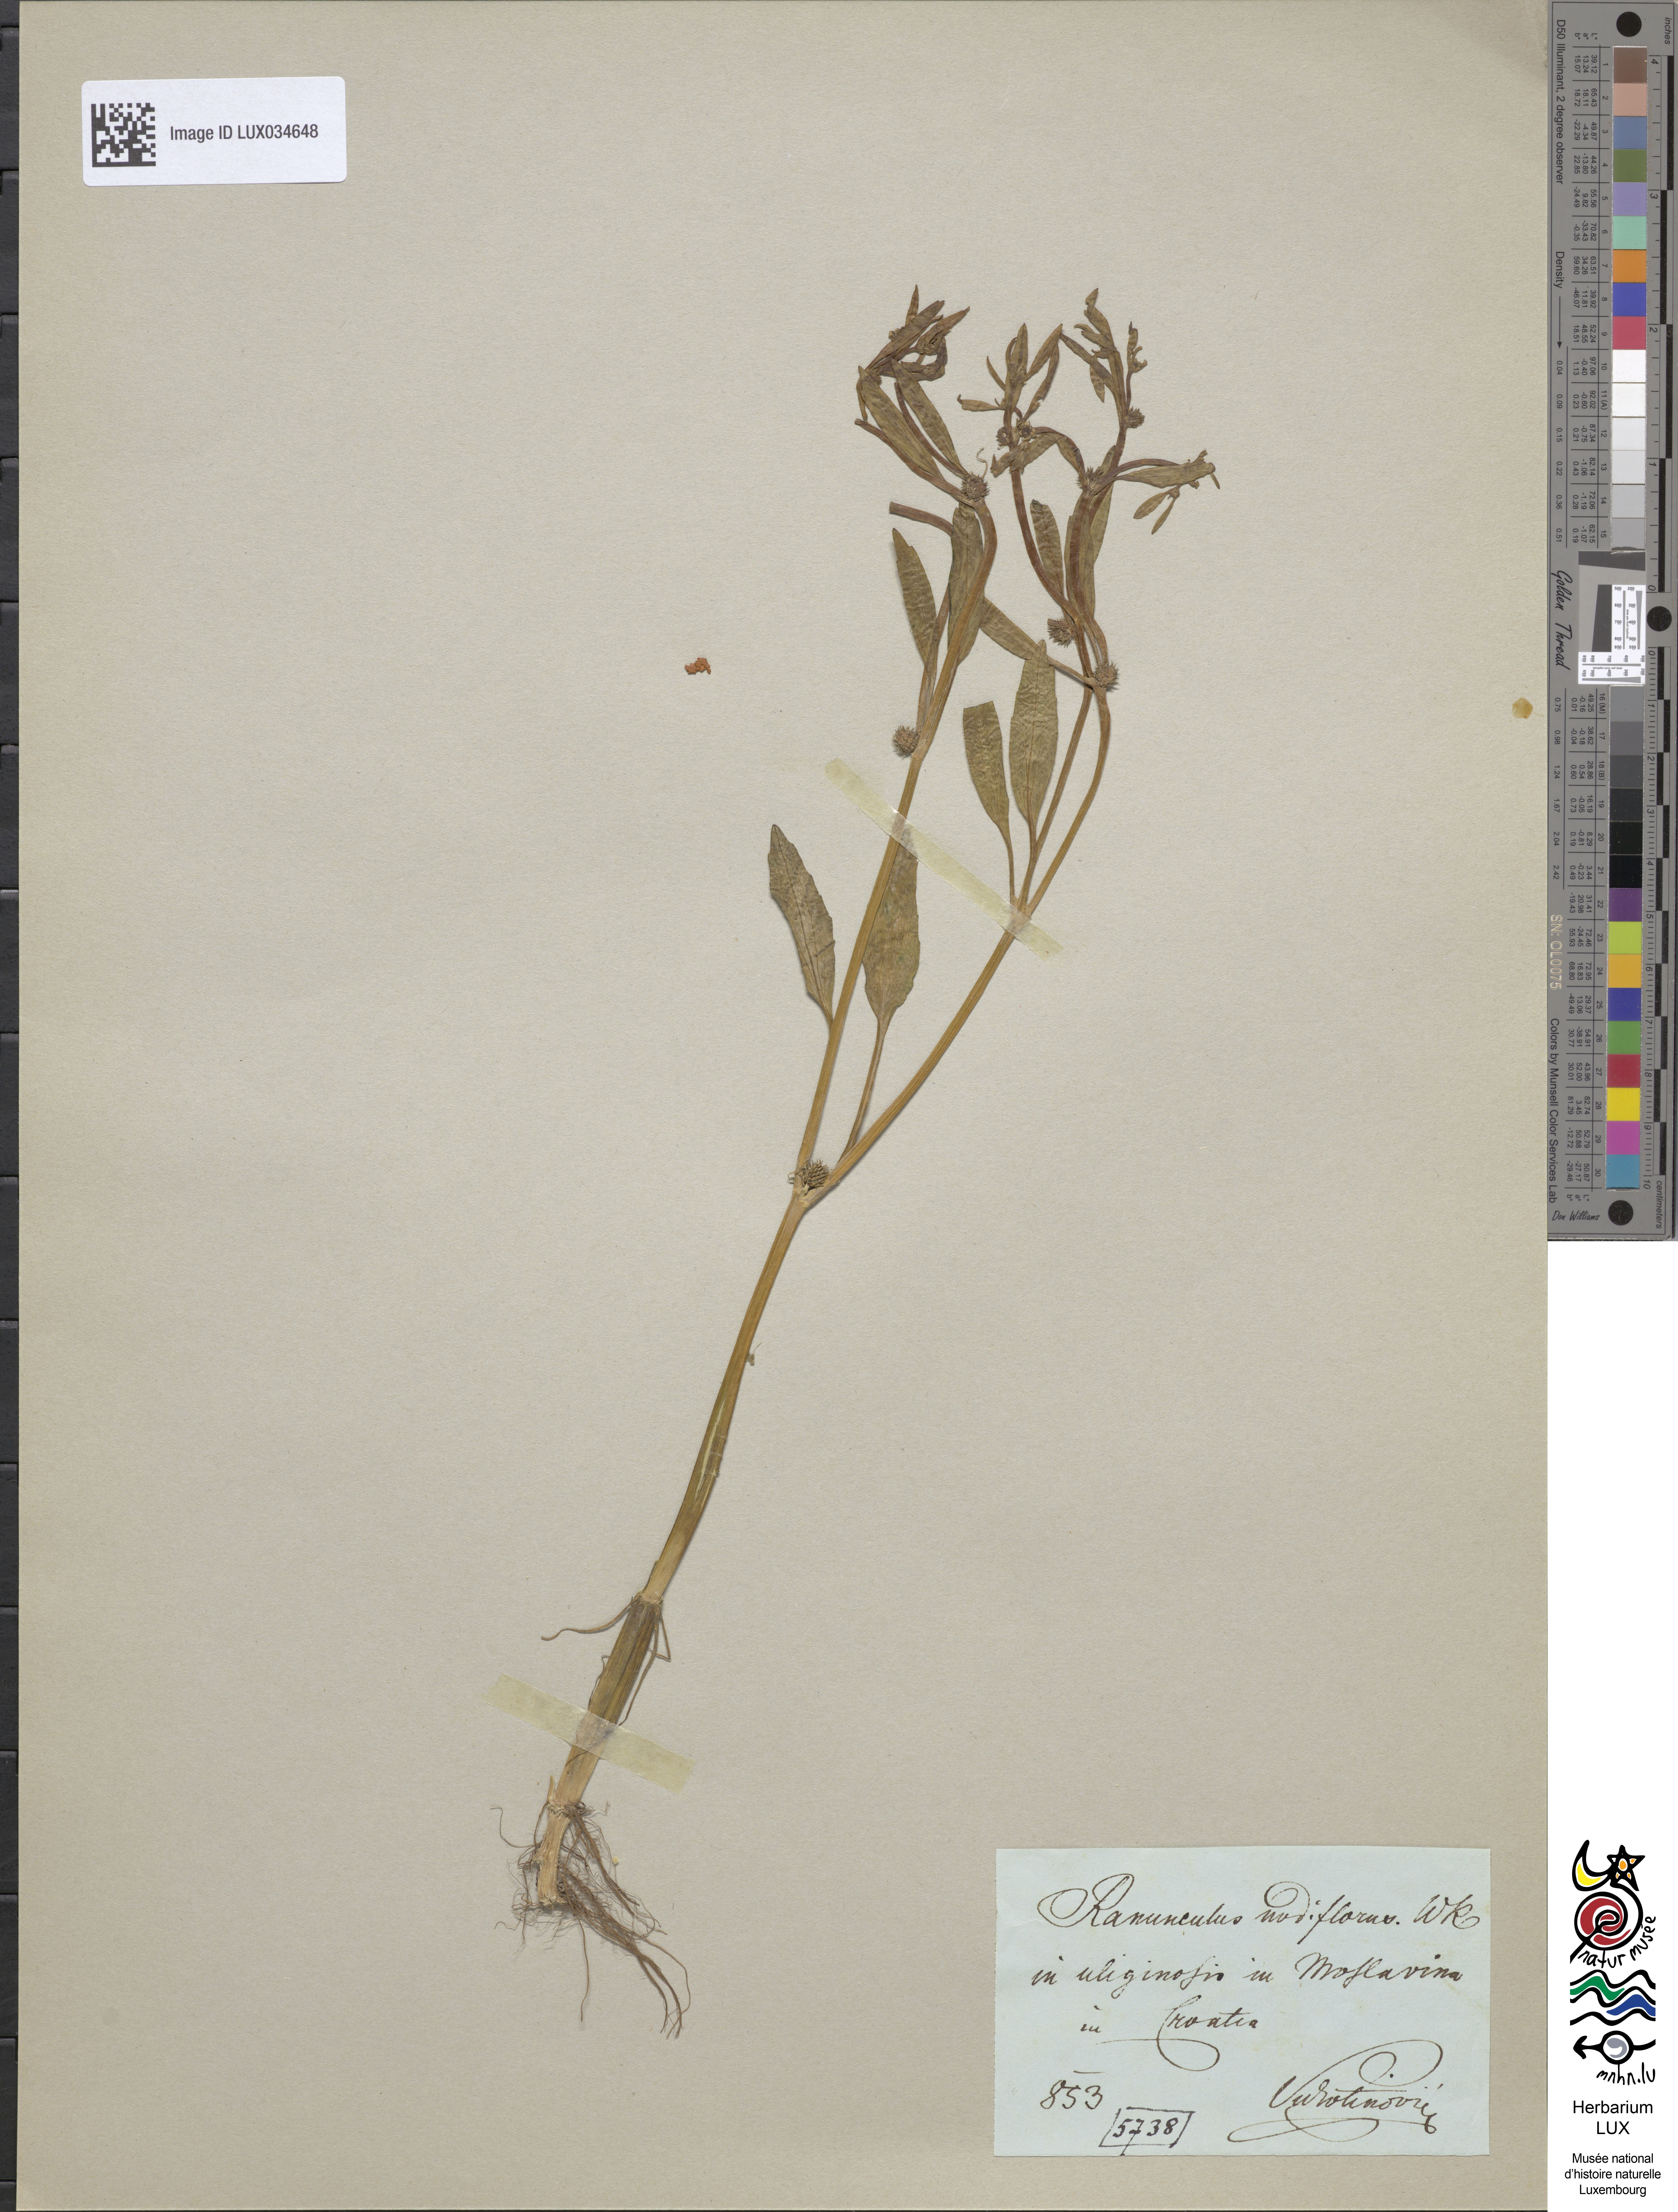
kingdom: Plantae
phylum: Tracheophyta
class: Magnoliopsida
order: Ranunculales
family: Ranunculaceae
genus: Ranunculus
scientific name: Ranunculus lateriflorus
